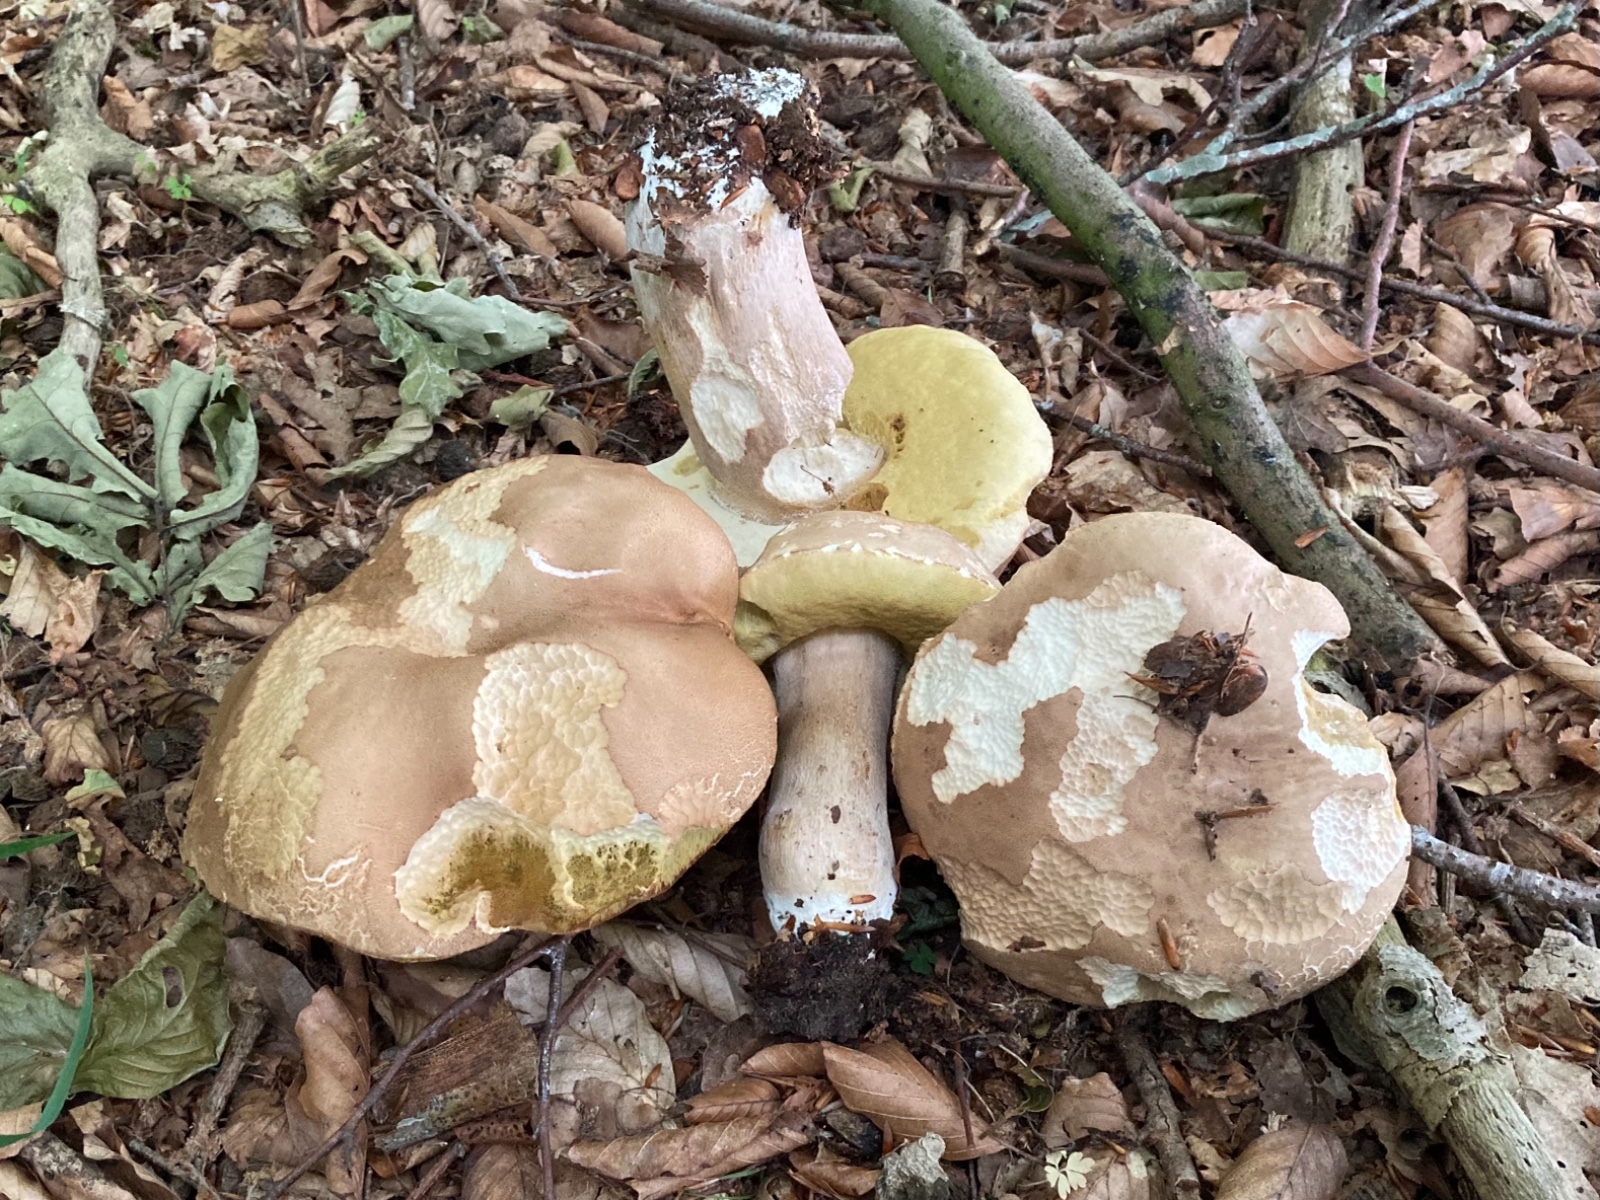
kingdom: Fungi
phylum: Basidiomycota
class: Agaricomycetes
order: Boletales
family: Boletaceae
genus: Boletus
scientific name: Boletus edulis
